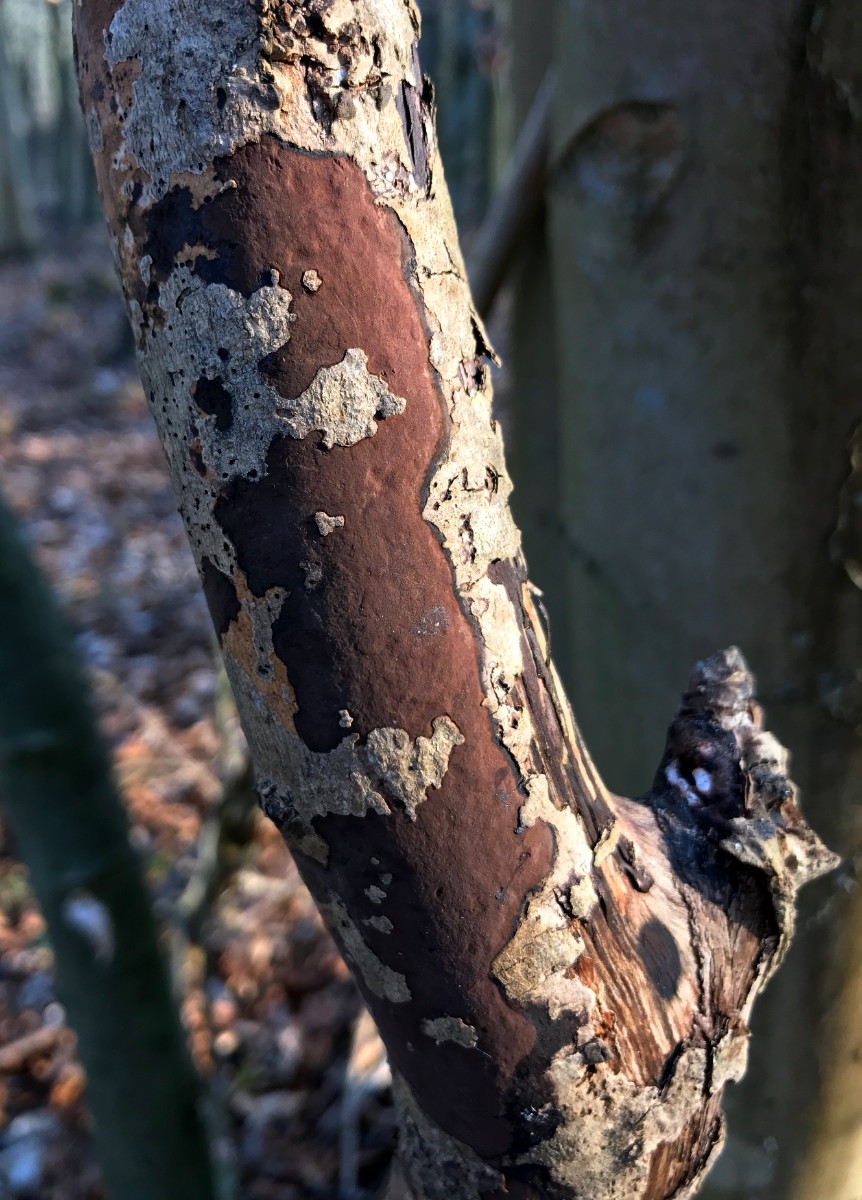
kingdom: Fungi
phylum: Ascomycota
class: Sordariomycetes
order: Xylariales
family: Hypoxylaceae
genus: Hypoxylon
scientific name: Hypoxylon petriniae
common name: nedsænket kulbær
